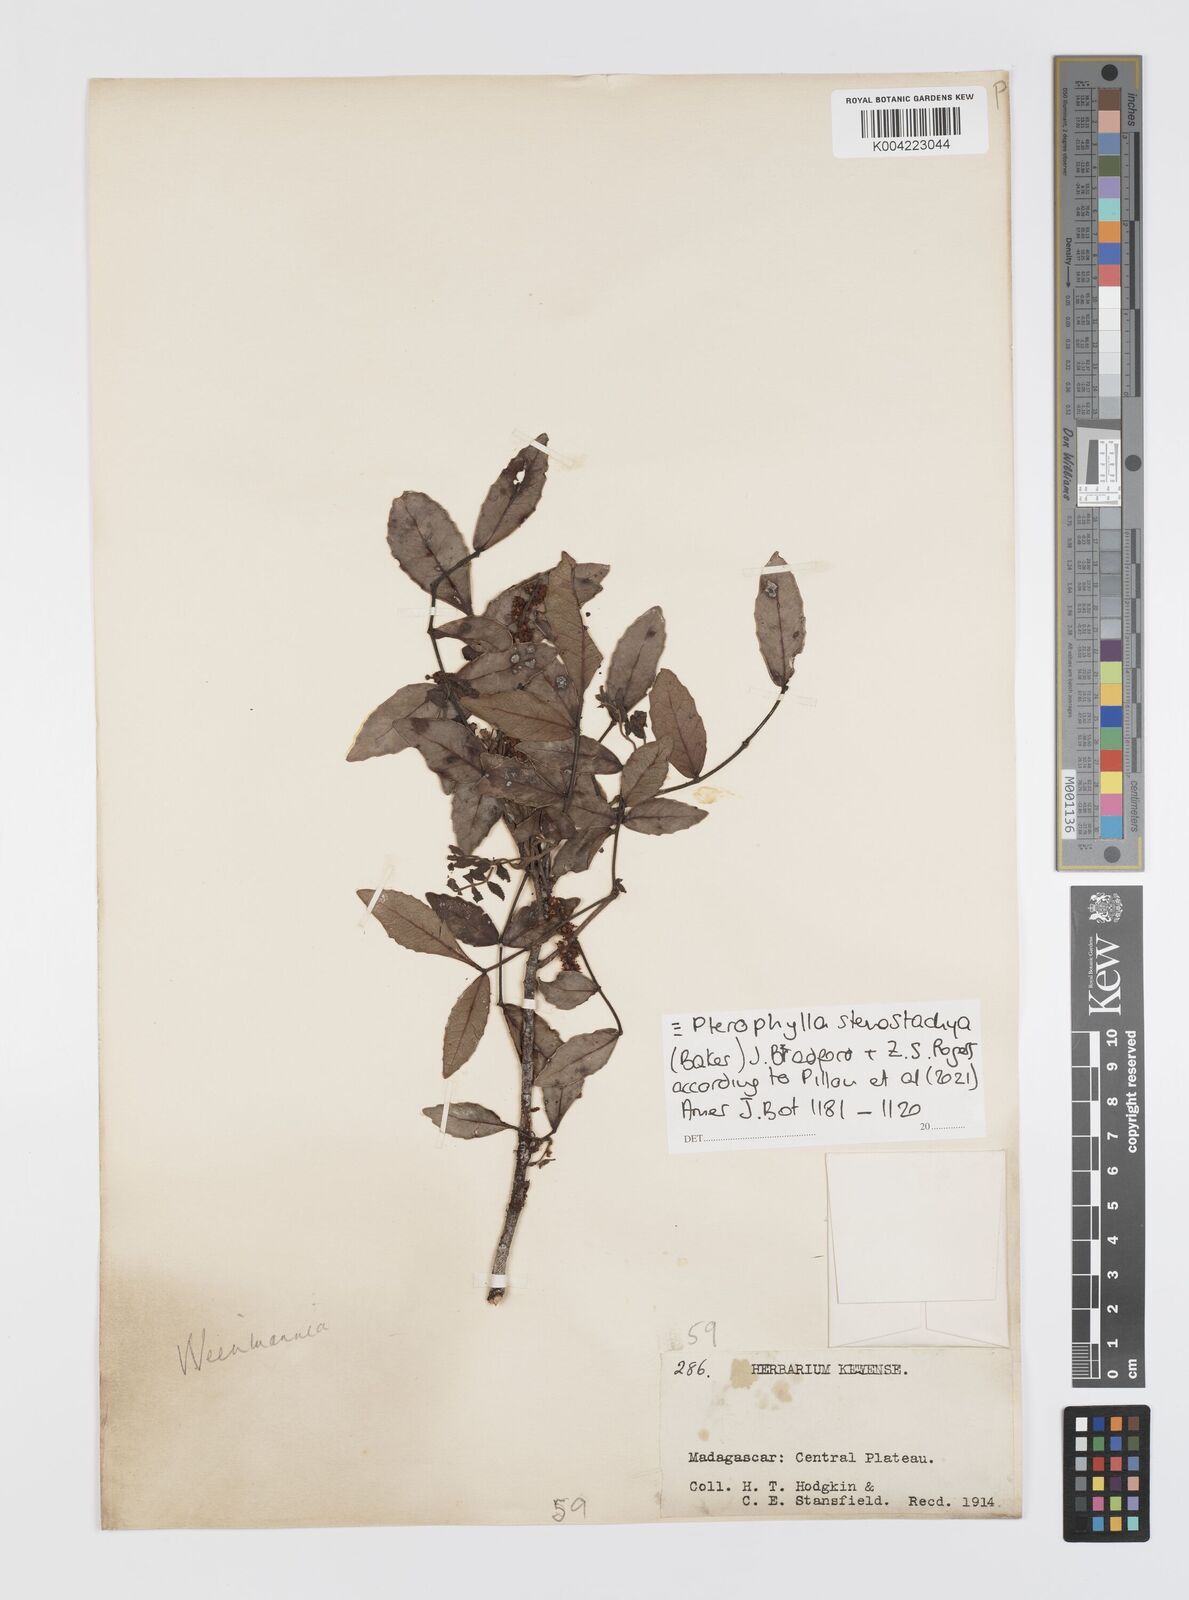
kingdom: Plantae
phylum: Tracheophyta
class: Magnoliopsida
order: Oxalidales
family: Cunoniaceae
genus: Pterophylla
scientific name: Pterophylla stenostachya
